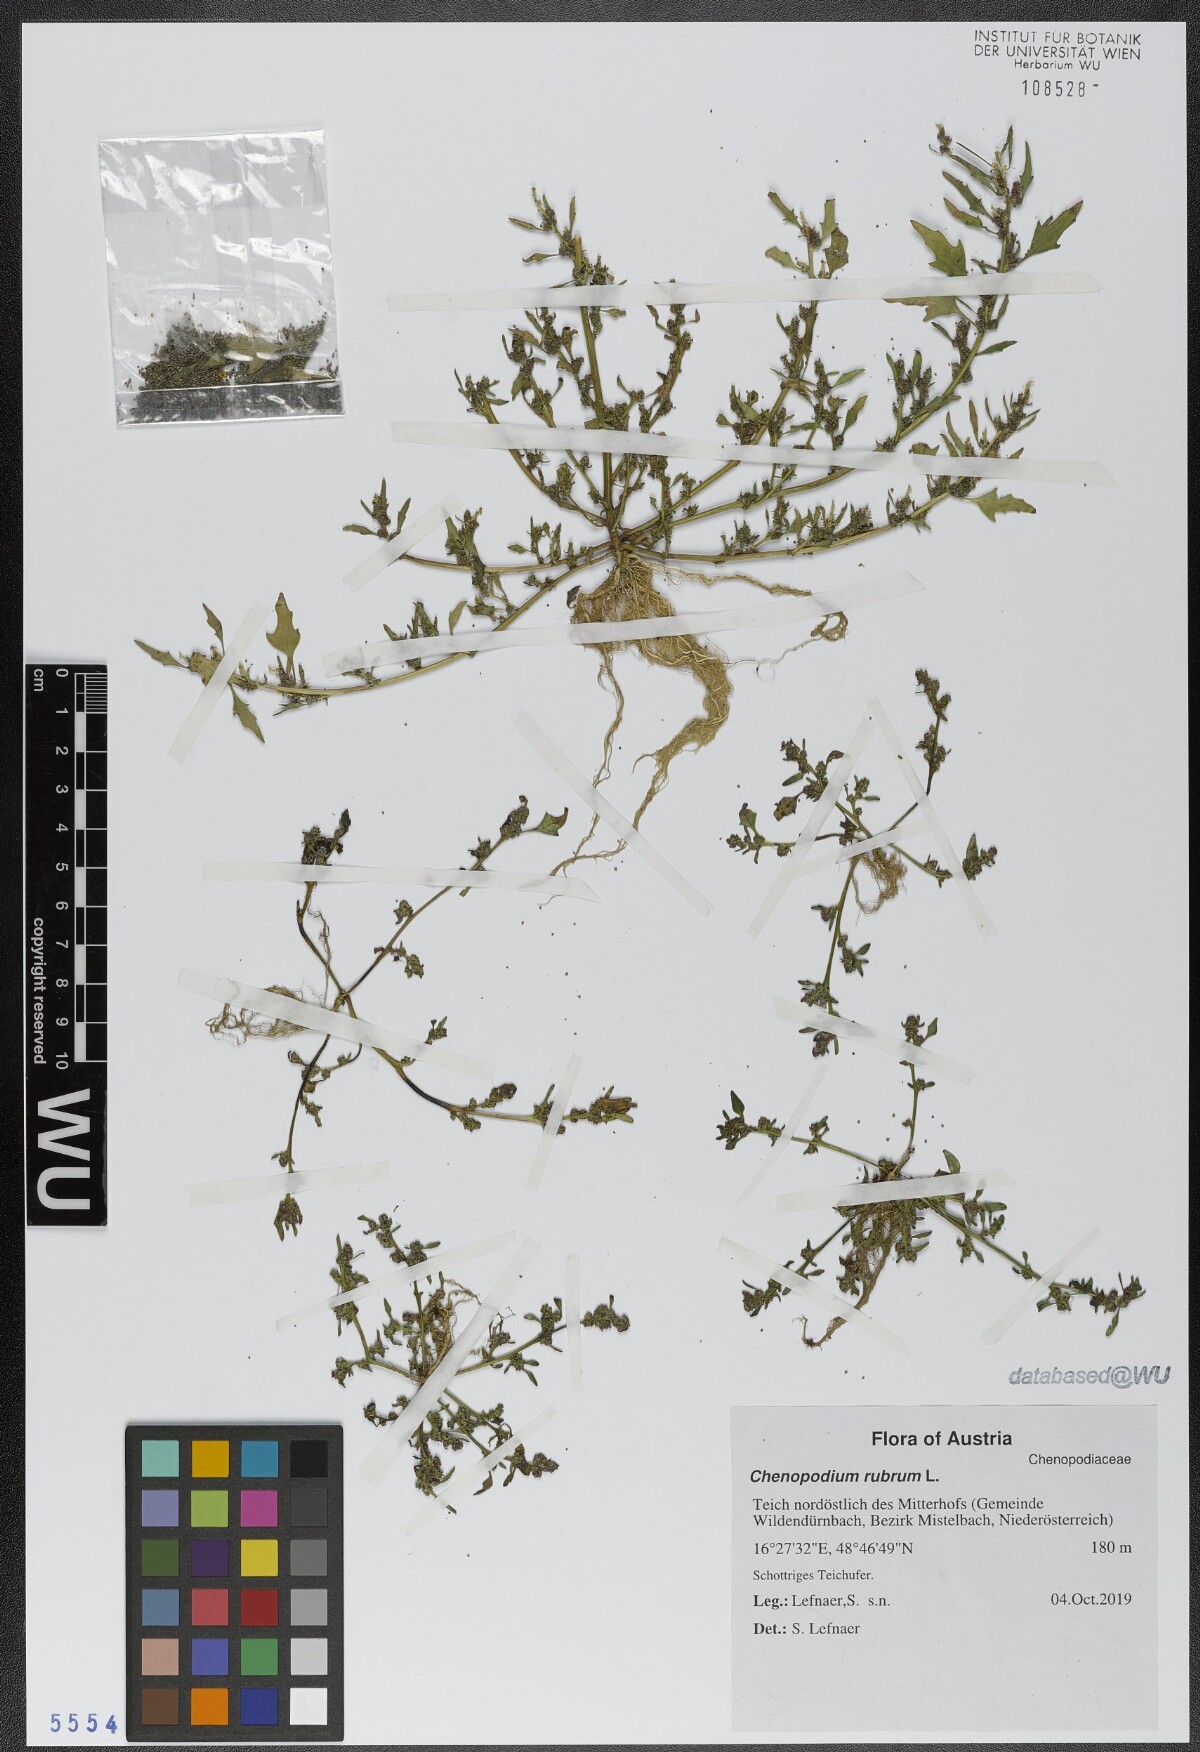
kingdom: Plantae
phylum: Tracheophyta
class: Magnoliopsida
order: Caryophyllales
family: Amaranthaceae
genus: Oxybasis
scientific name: Oxybasis rubra
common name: Red goosefoot
